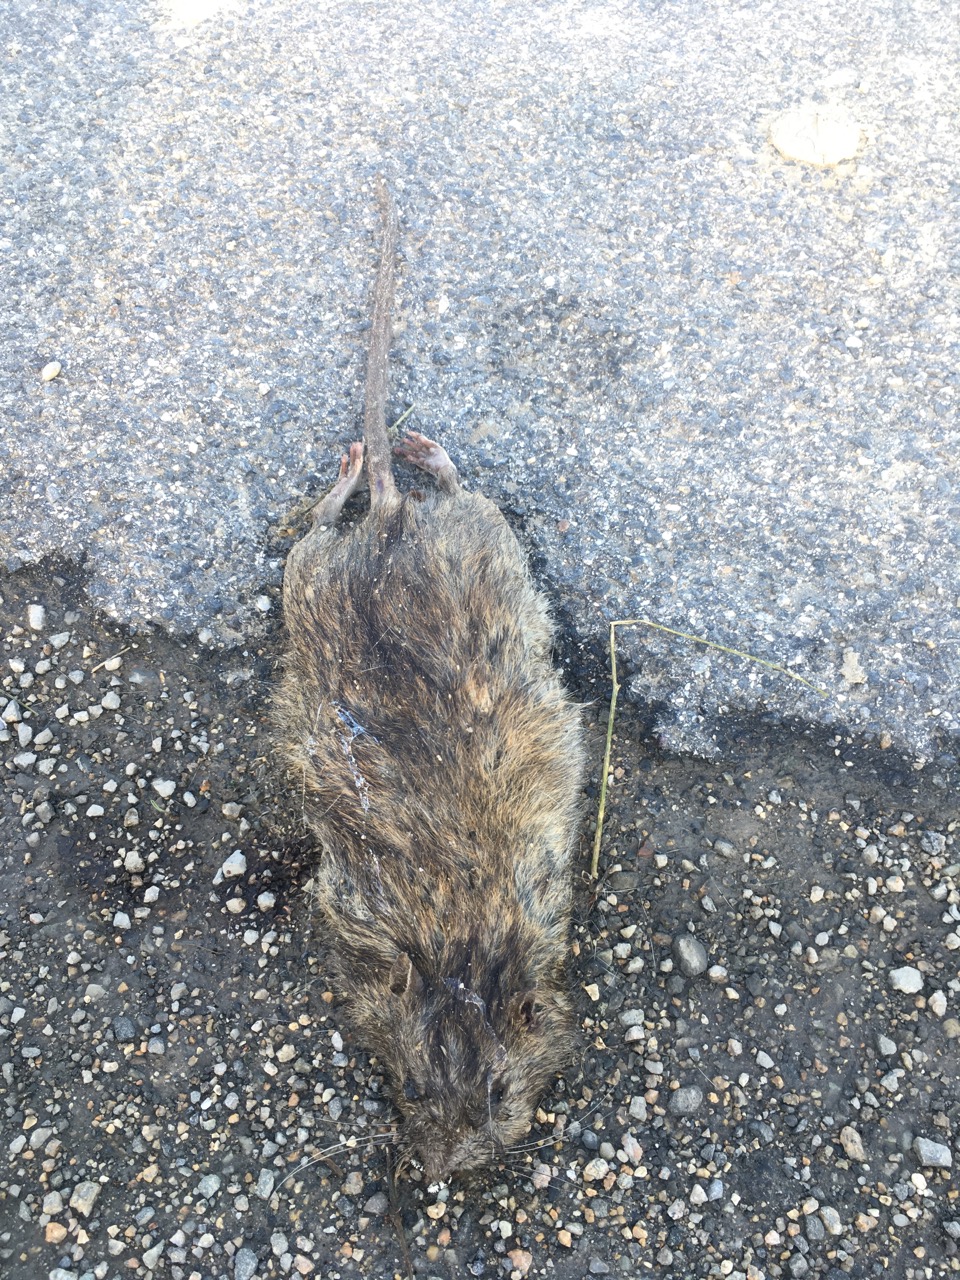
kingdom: Animalia
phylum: Chordata
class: Mammalia
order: Rodentia
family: Muridae
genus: Rattus
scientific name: Rattus
